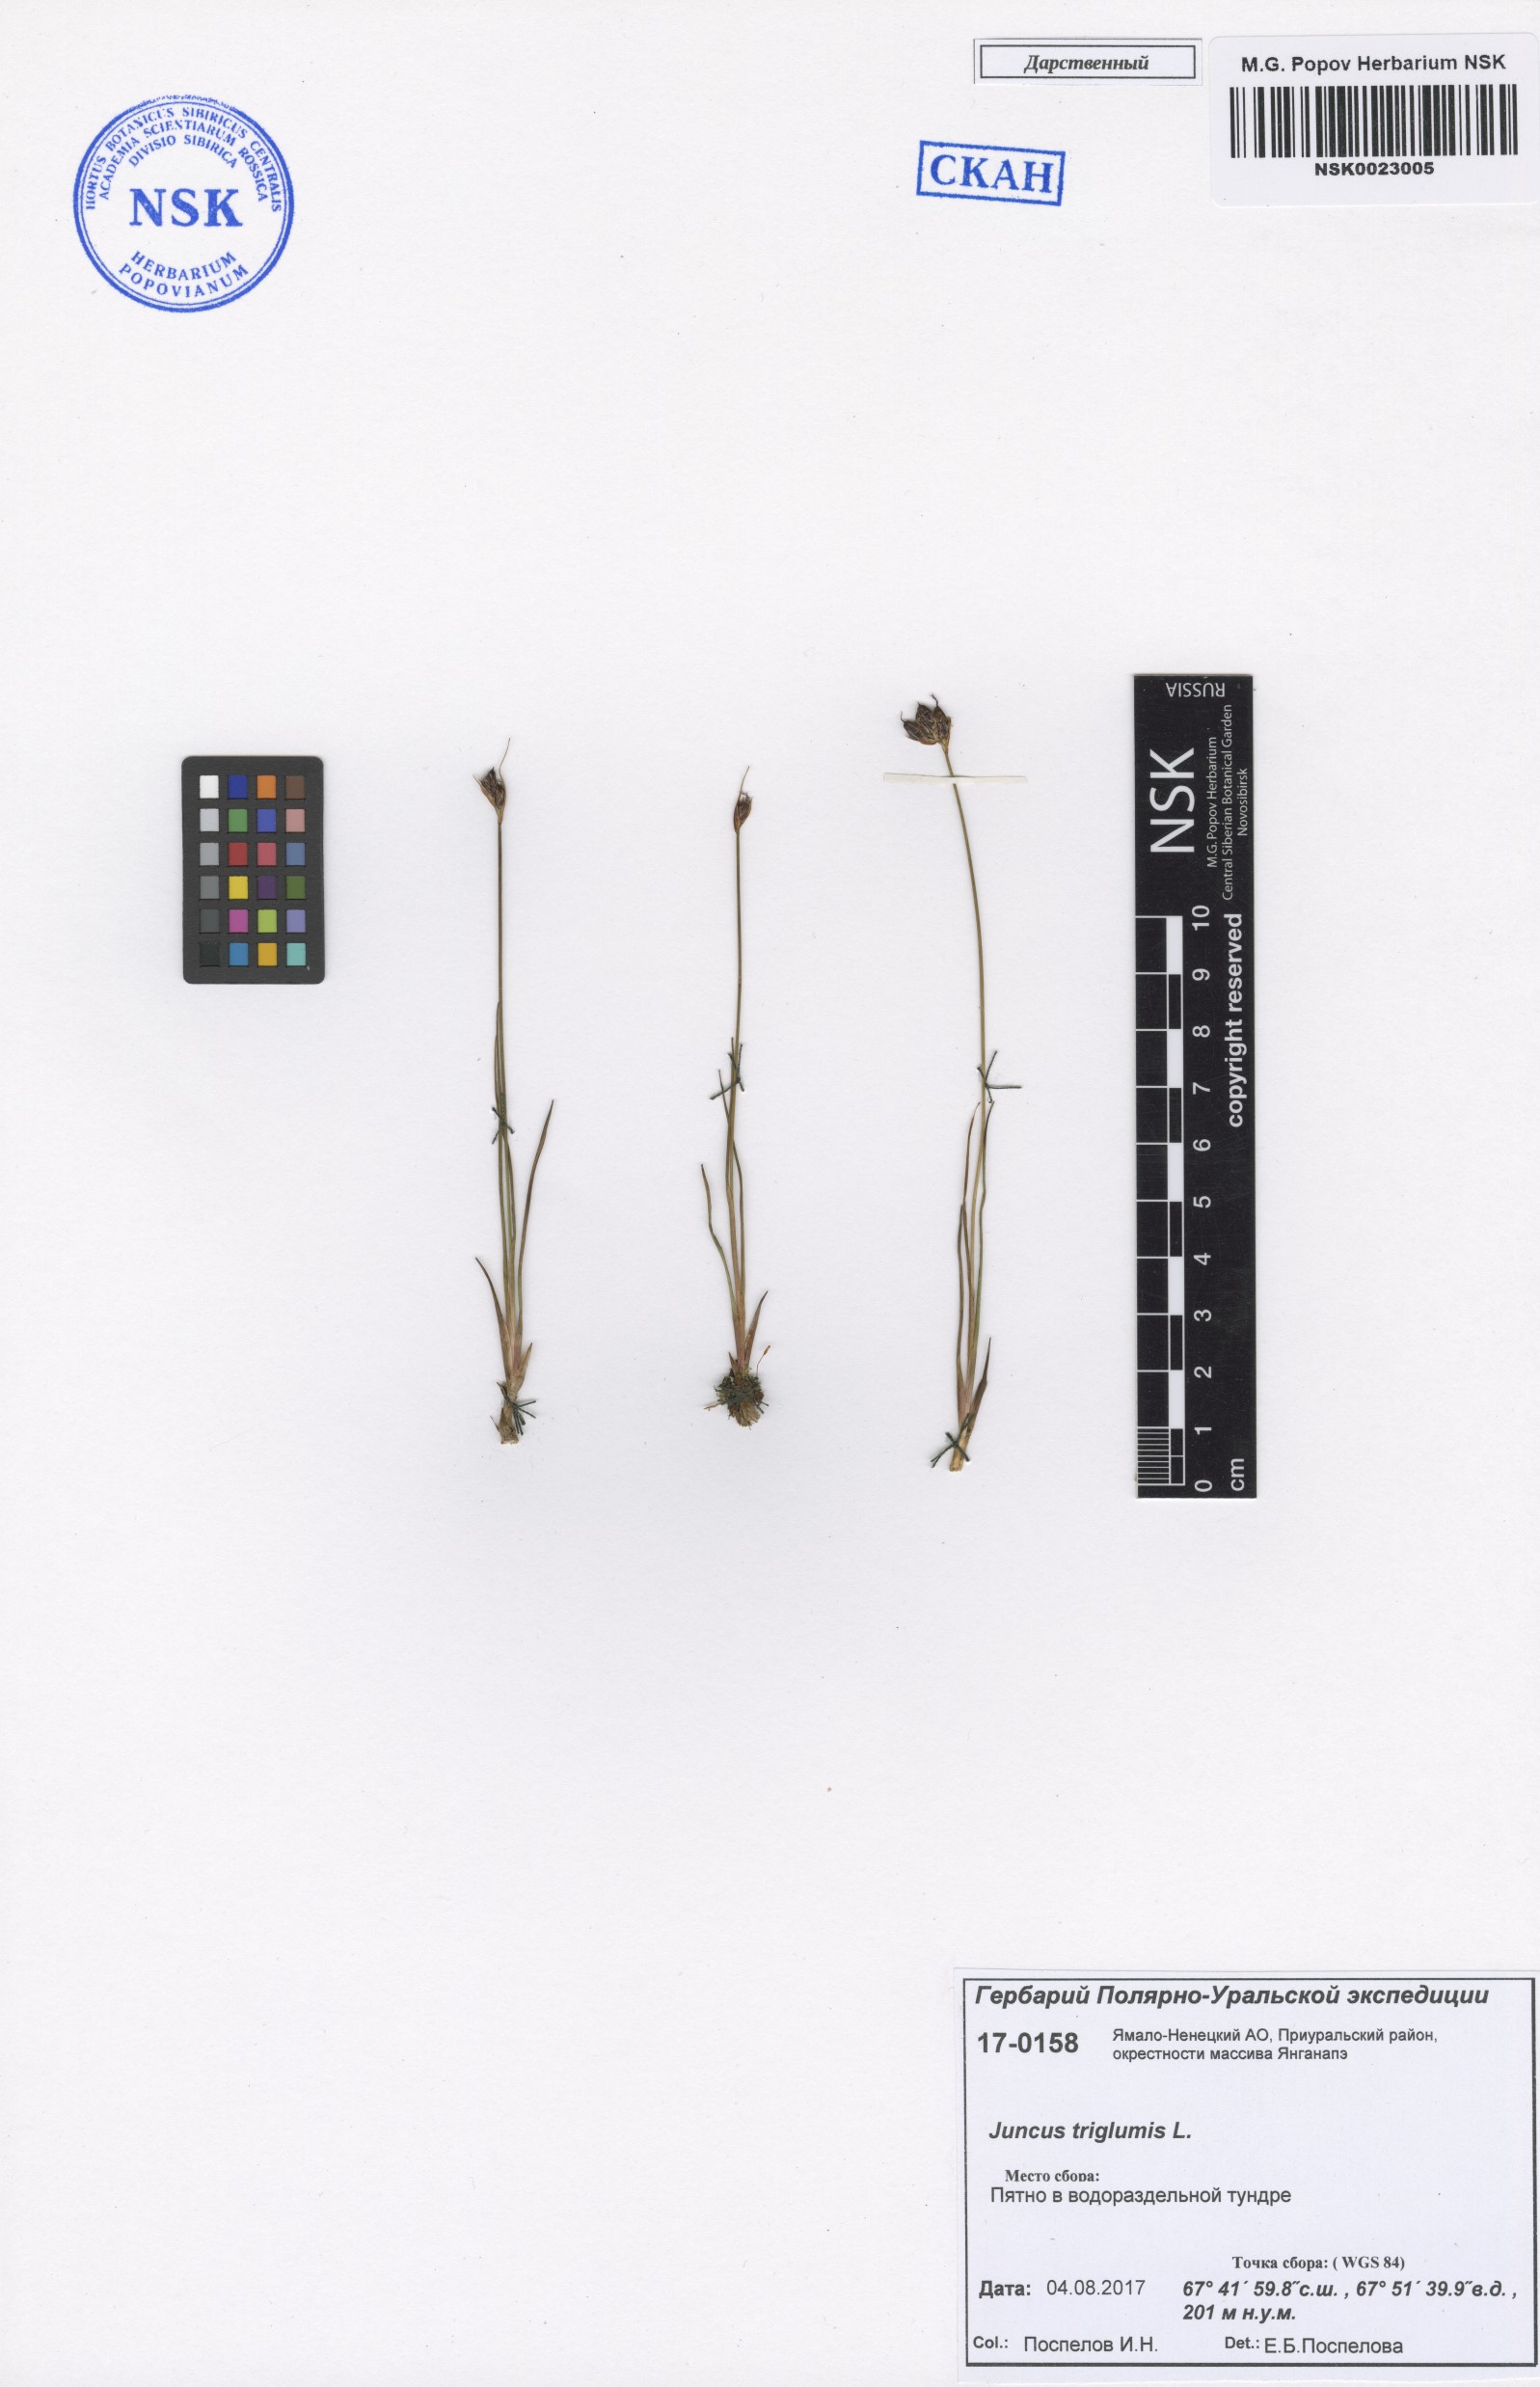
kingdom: Plantae
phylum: Tracheophyta
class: Liliopsida
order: Poales
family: Juncaceae
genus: Juncus
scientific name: Juncus triglumis
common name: Three-flowered rush
